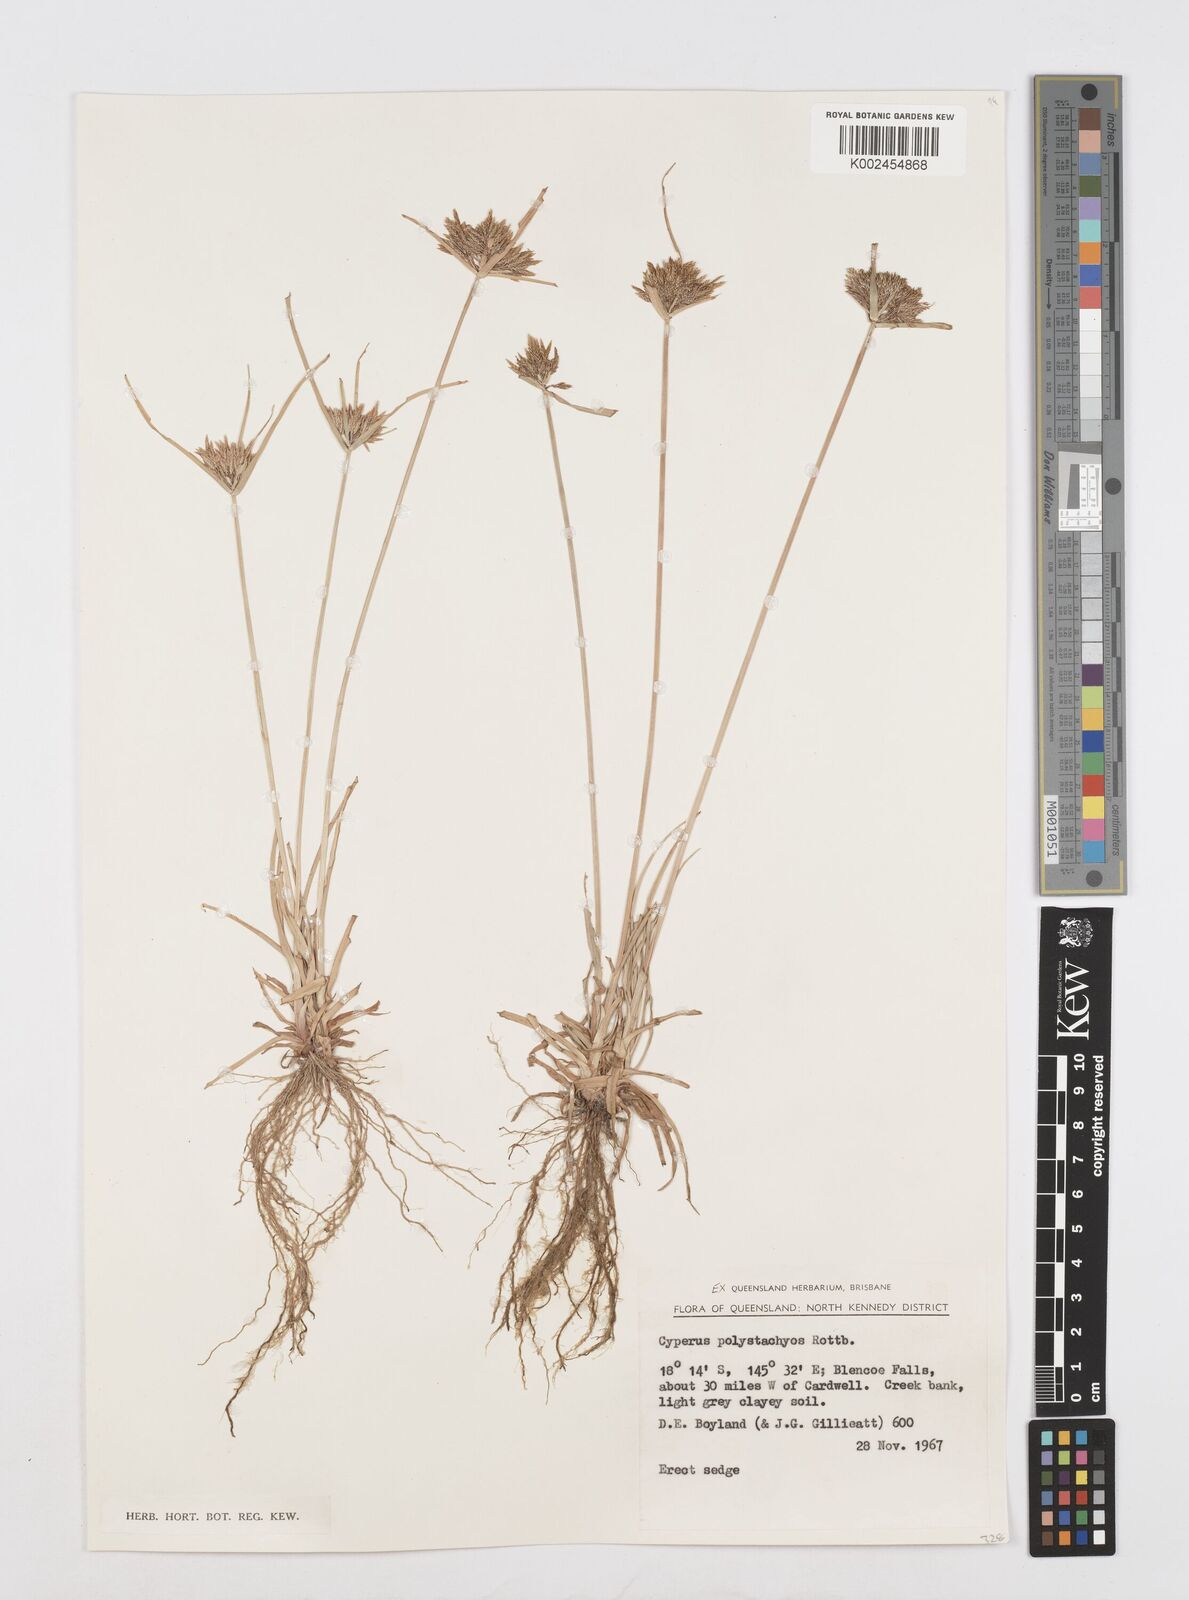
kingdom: Plantae
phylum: Tracheophyta
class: Liliopsida
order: Poales
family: Cyperaceae
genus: Cyperus
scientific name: Cyperus polystachyos
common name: Bunchy flat sedge
